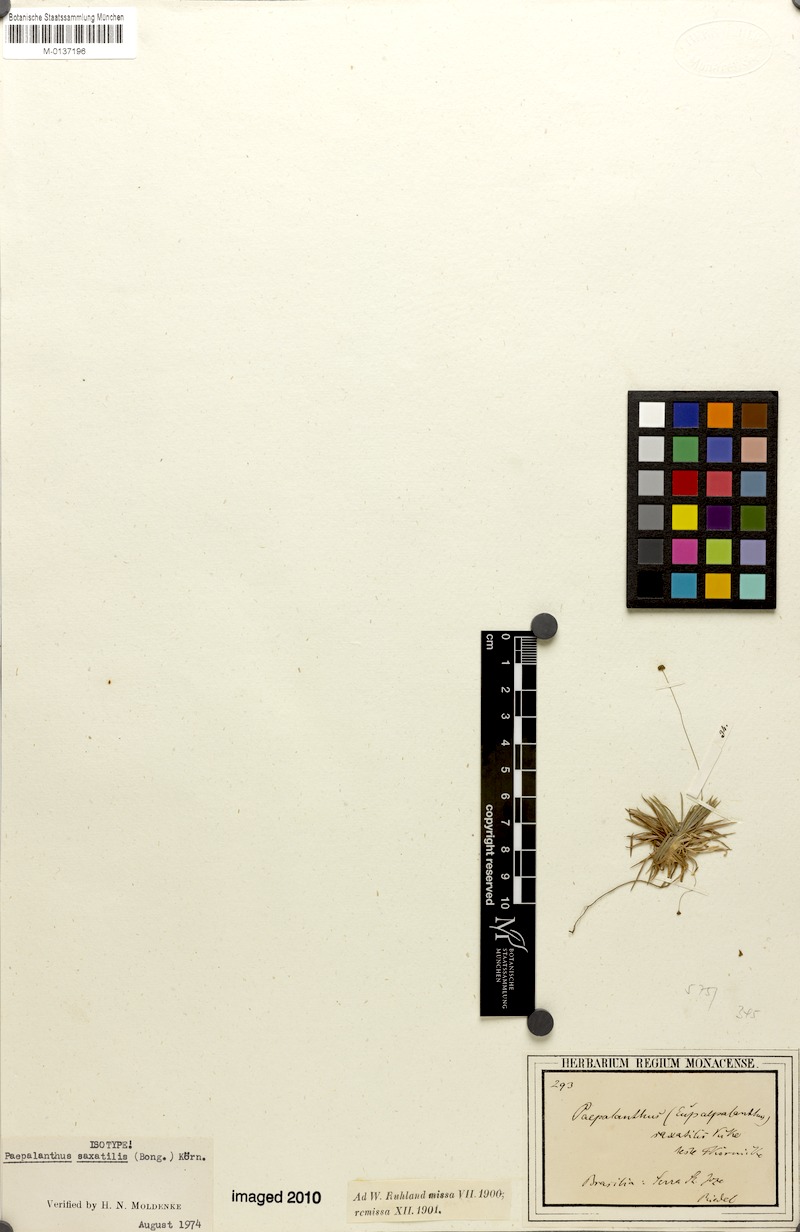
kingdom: Plantae
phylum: Tracheophyta
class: Liliopsida
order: Poales
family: Eriocaulaceae
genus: Paepalanthus
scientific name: Paepalanthus saxatilis
